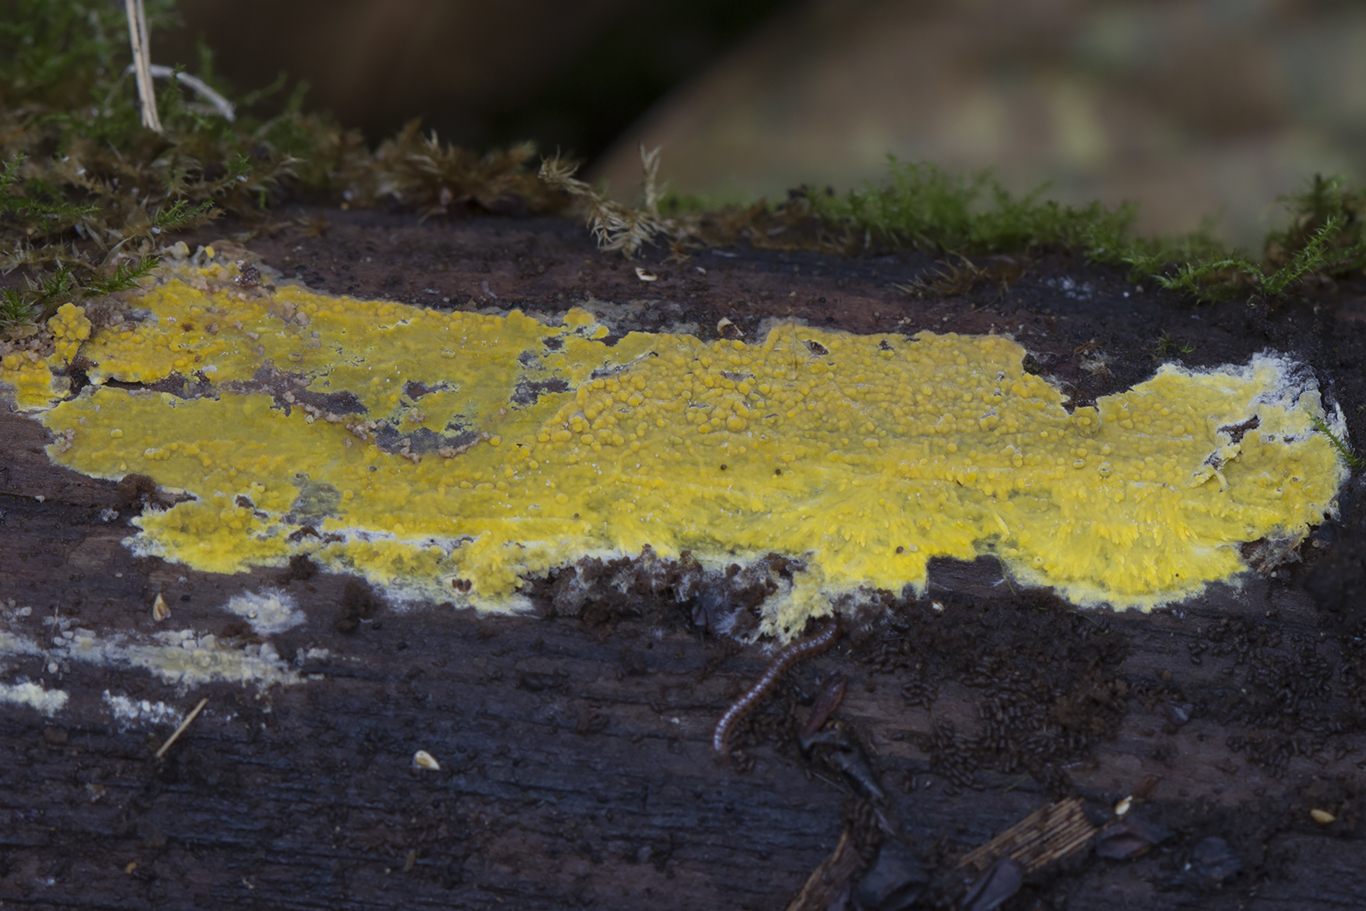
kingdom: Fungi
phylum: Basidiomycota
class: Agaricomycetes
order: Polyporales
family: Meruliaceae
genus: Phlebiodontia
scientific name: Phlebiodontia subochracea
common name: svovl-åresvamp
